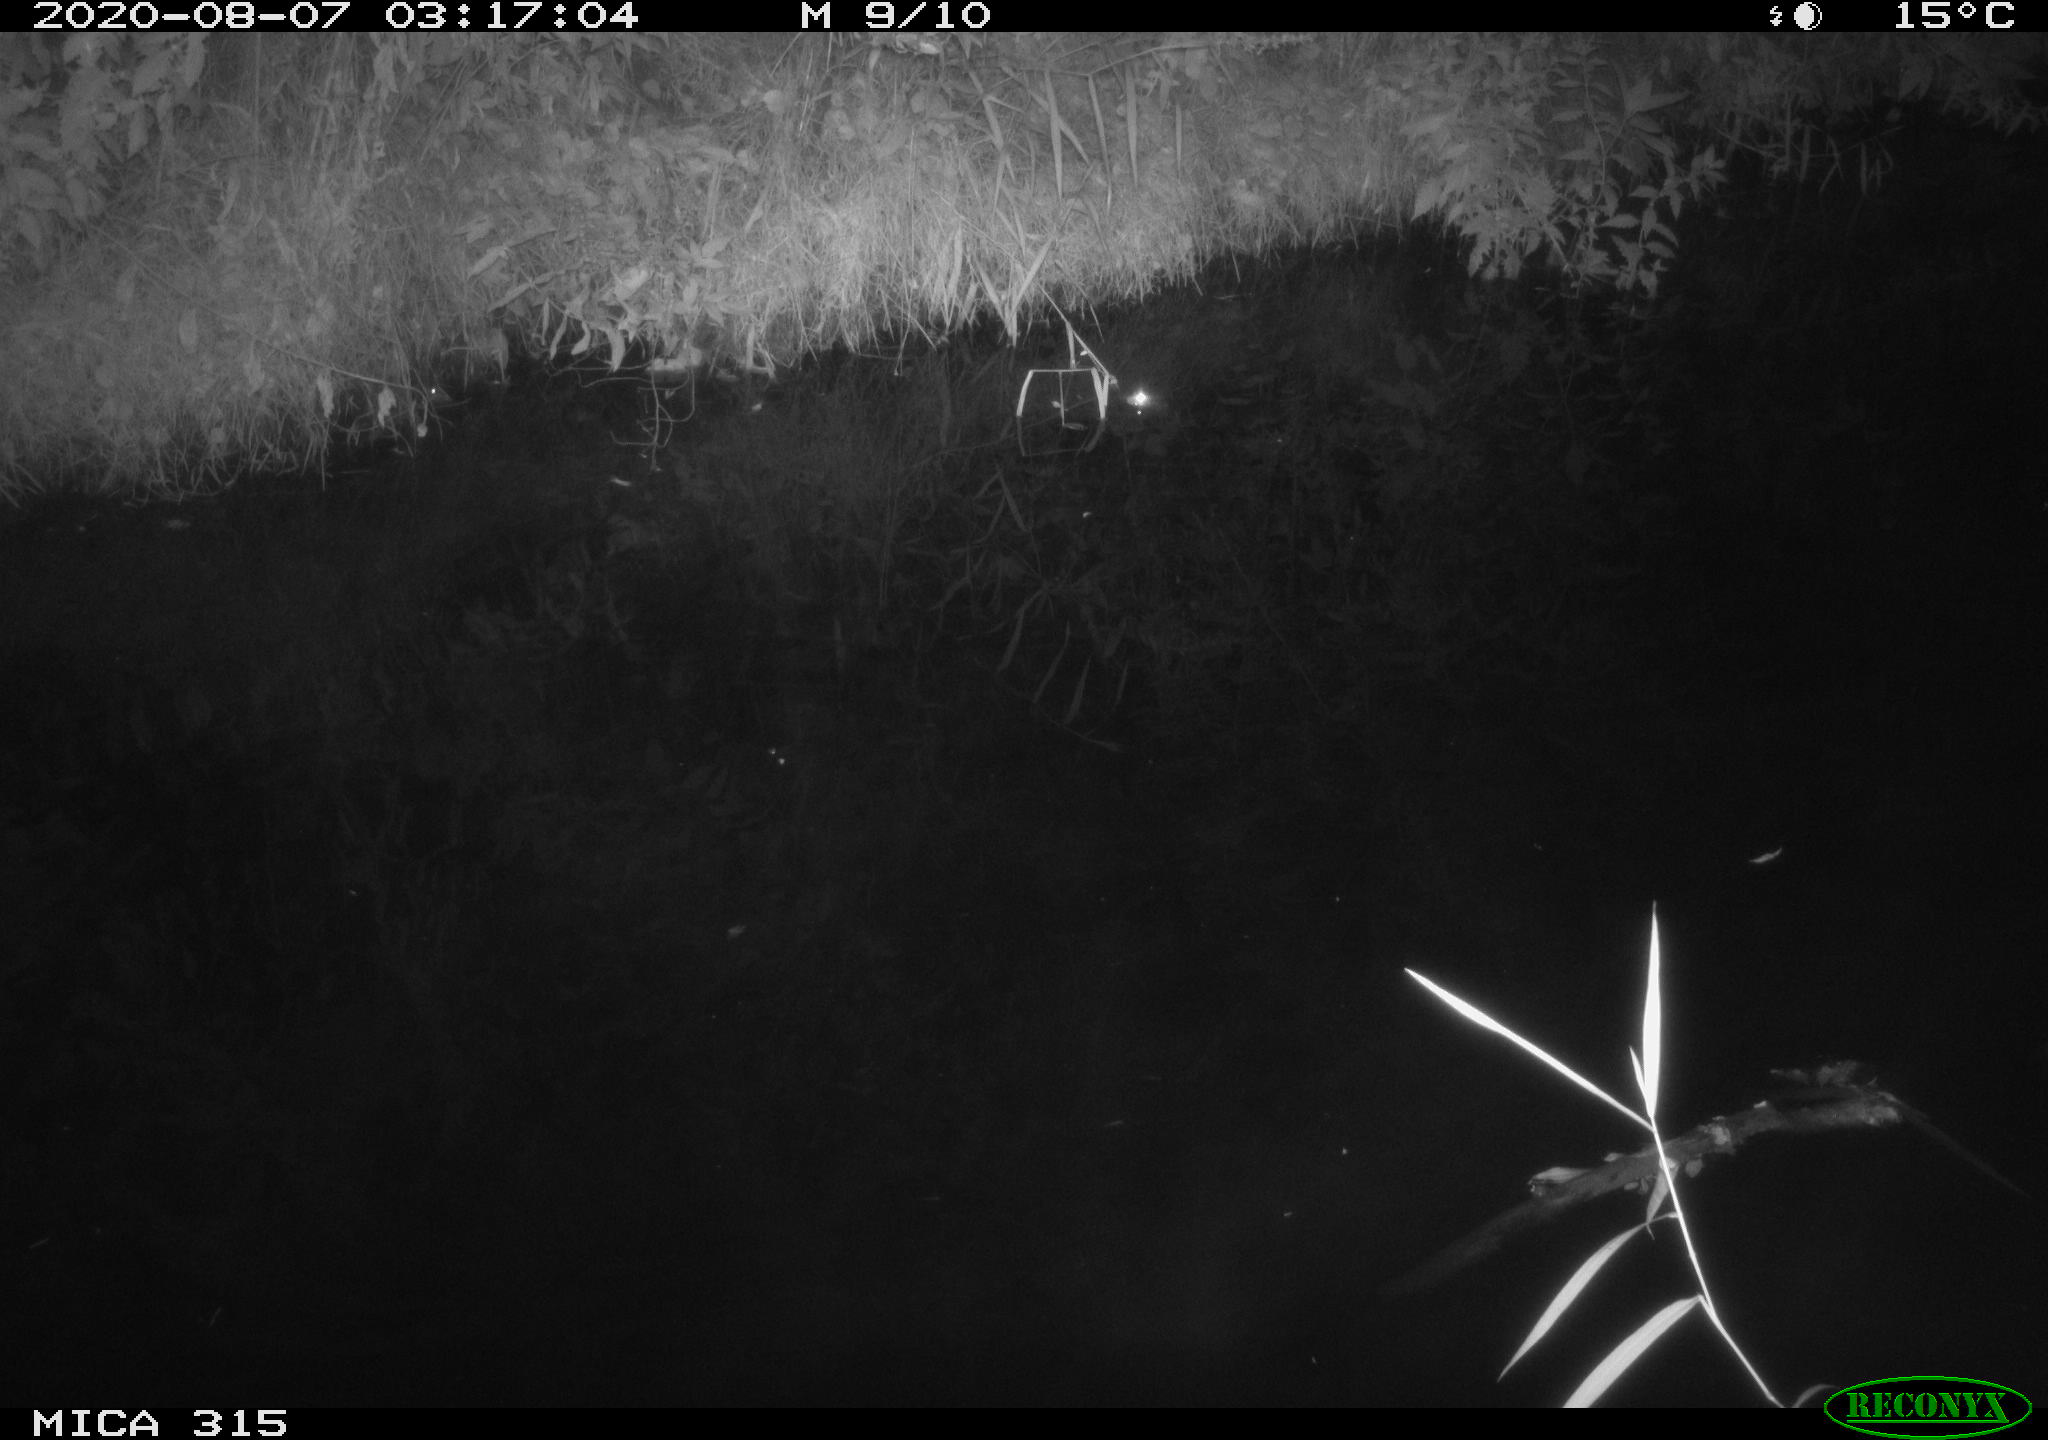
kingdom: Animalia
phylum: Chordata
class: Aves
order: Anseriformes
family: Anatidae
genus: Anas
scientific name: Anas platyrhynchos
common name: Mallard
